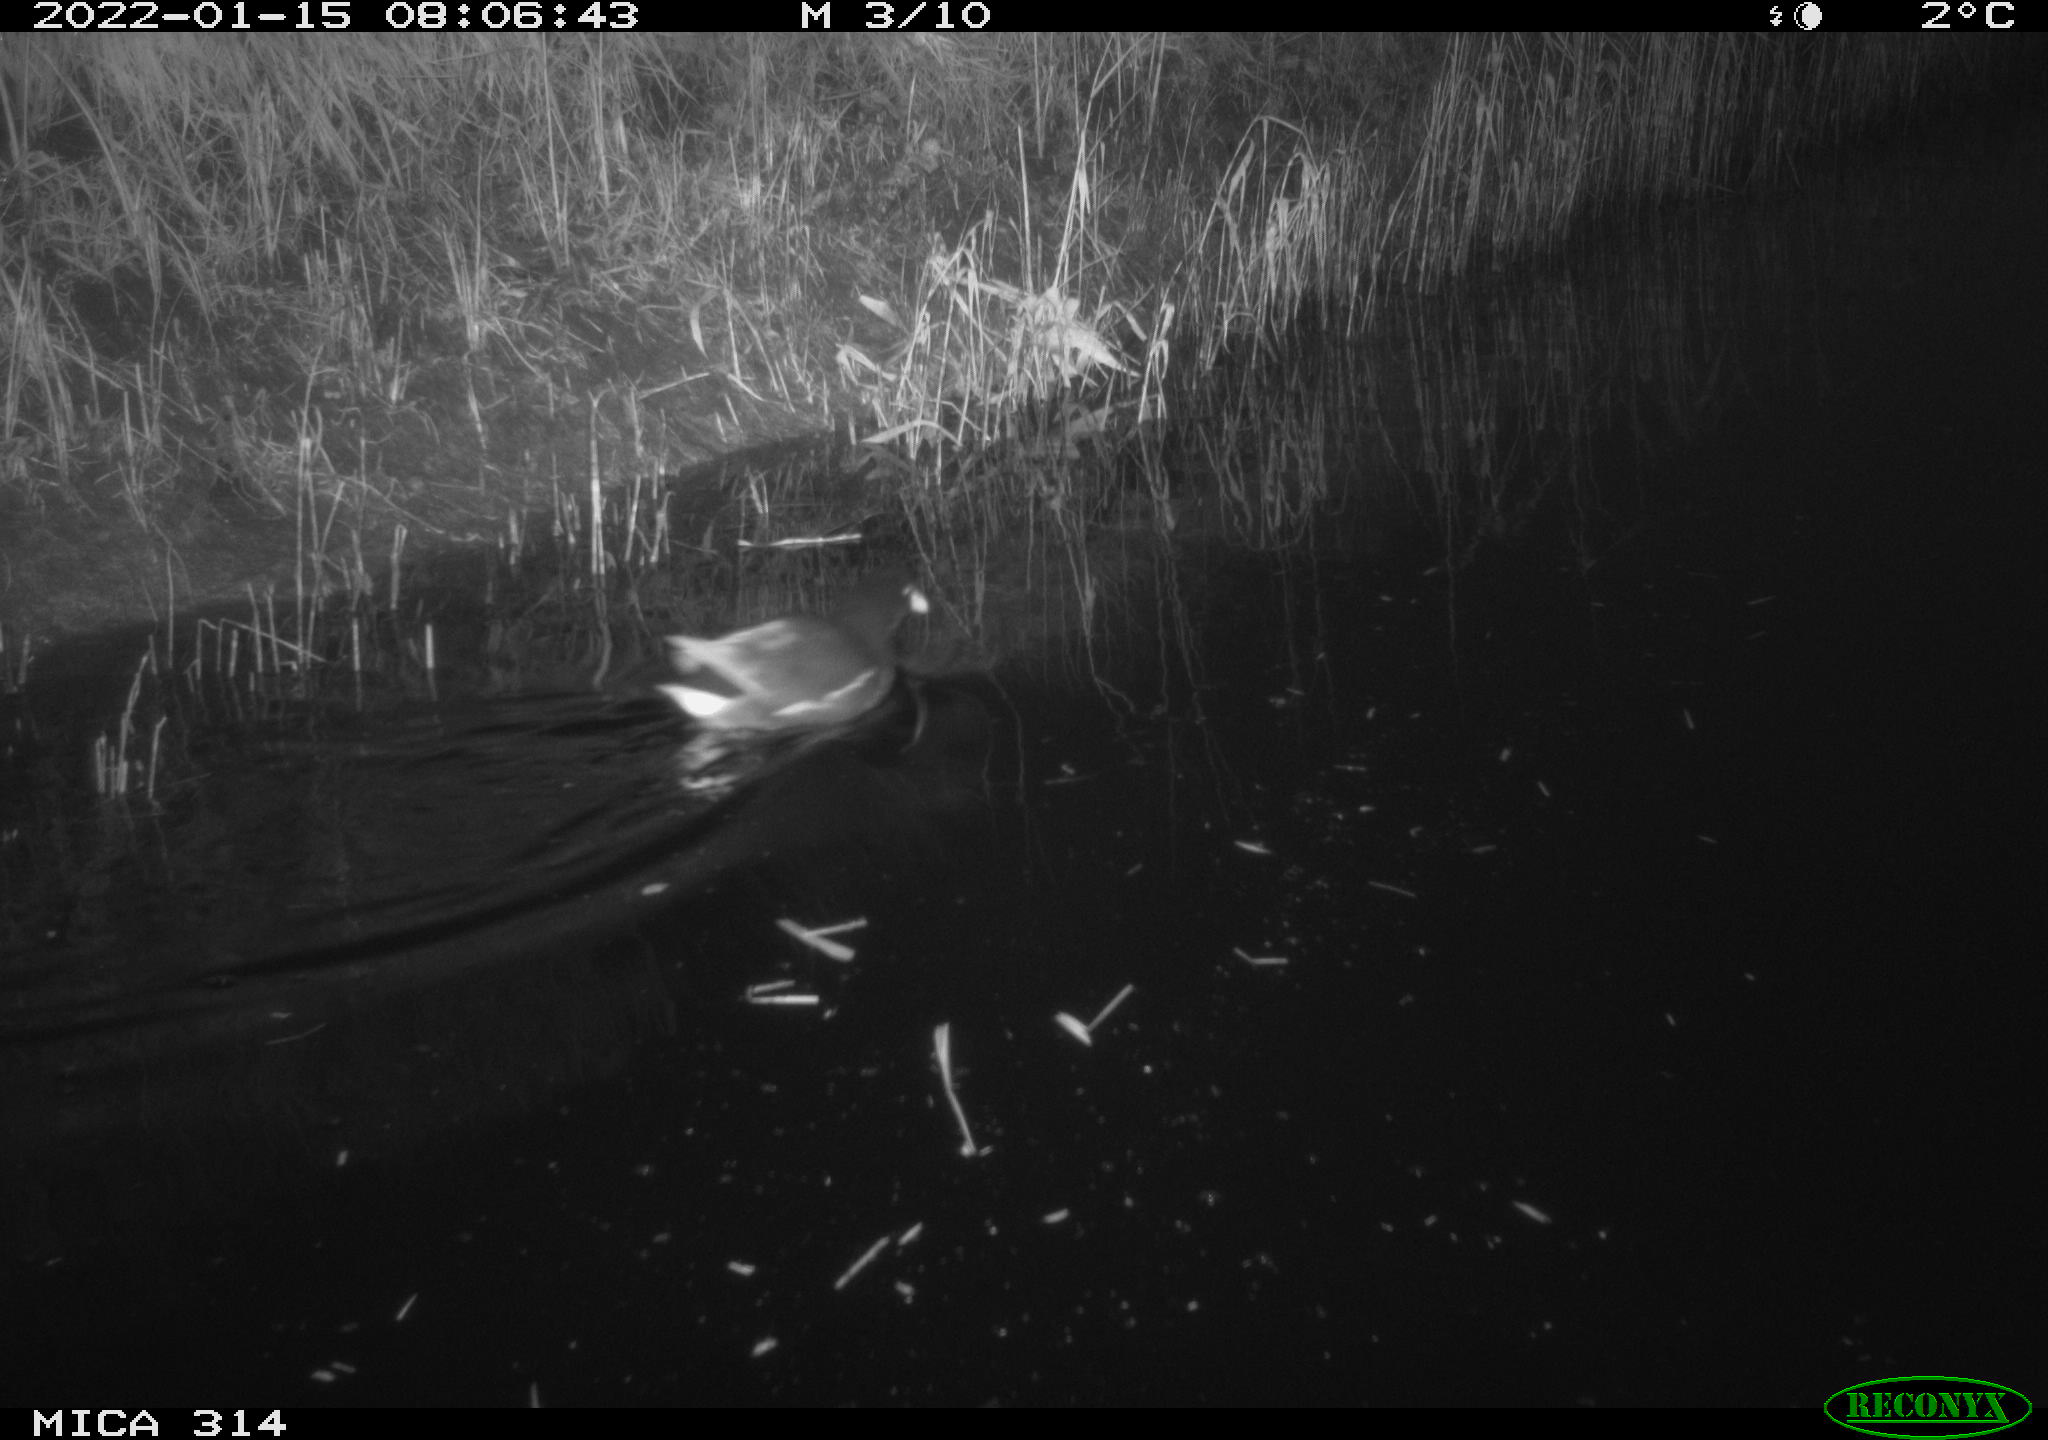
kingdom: Animalia
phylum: Chordata
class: Aves
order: Gruiformes
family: Rallidae
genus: Gallinula
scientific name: Gallinula chloropus
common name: Common moorhen
